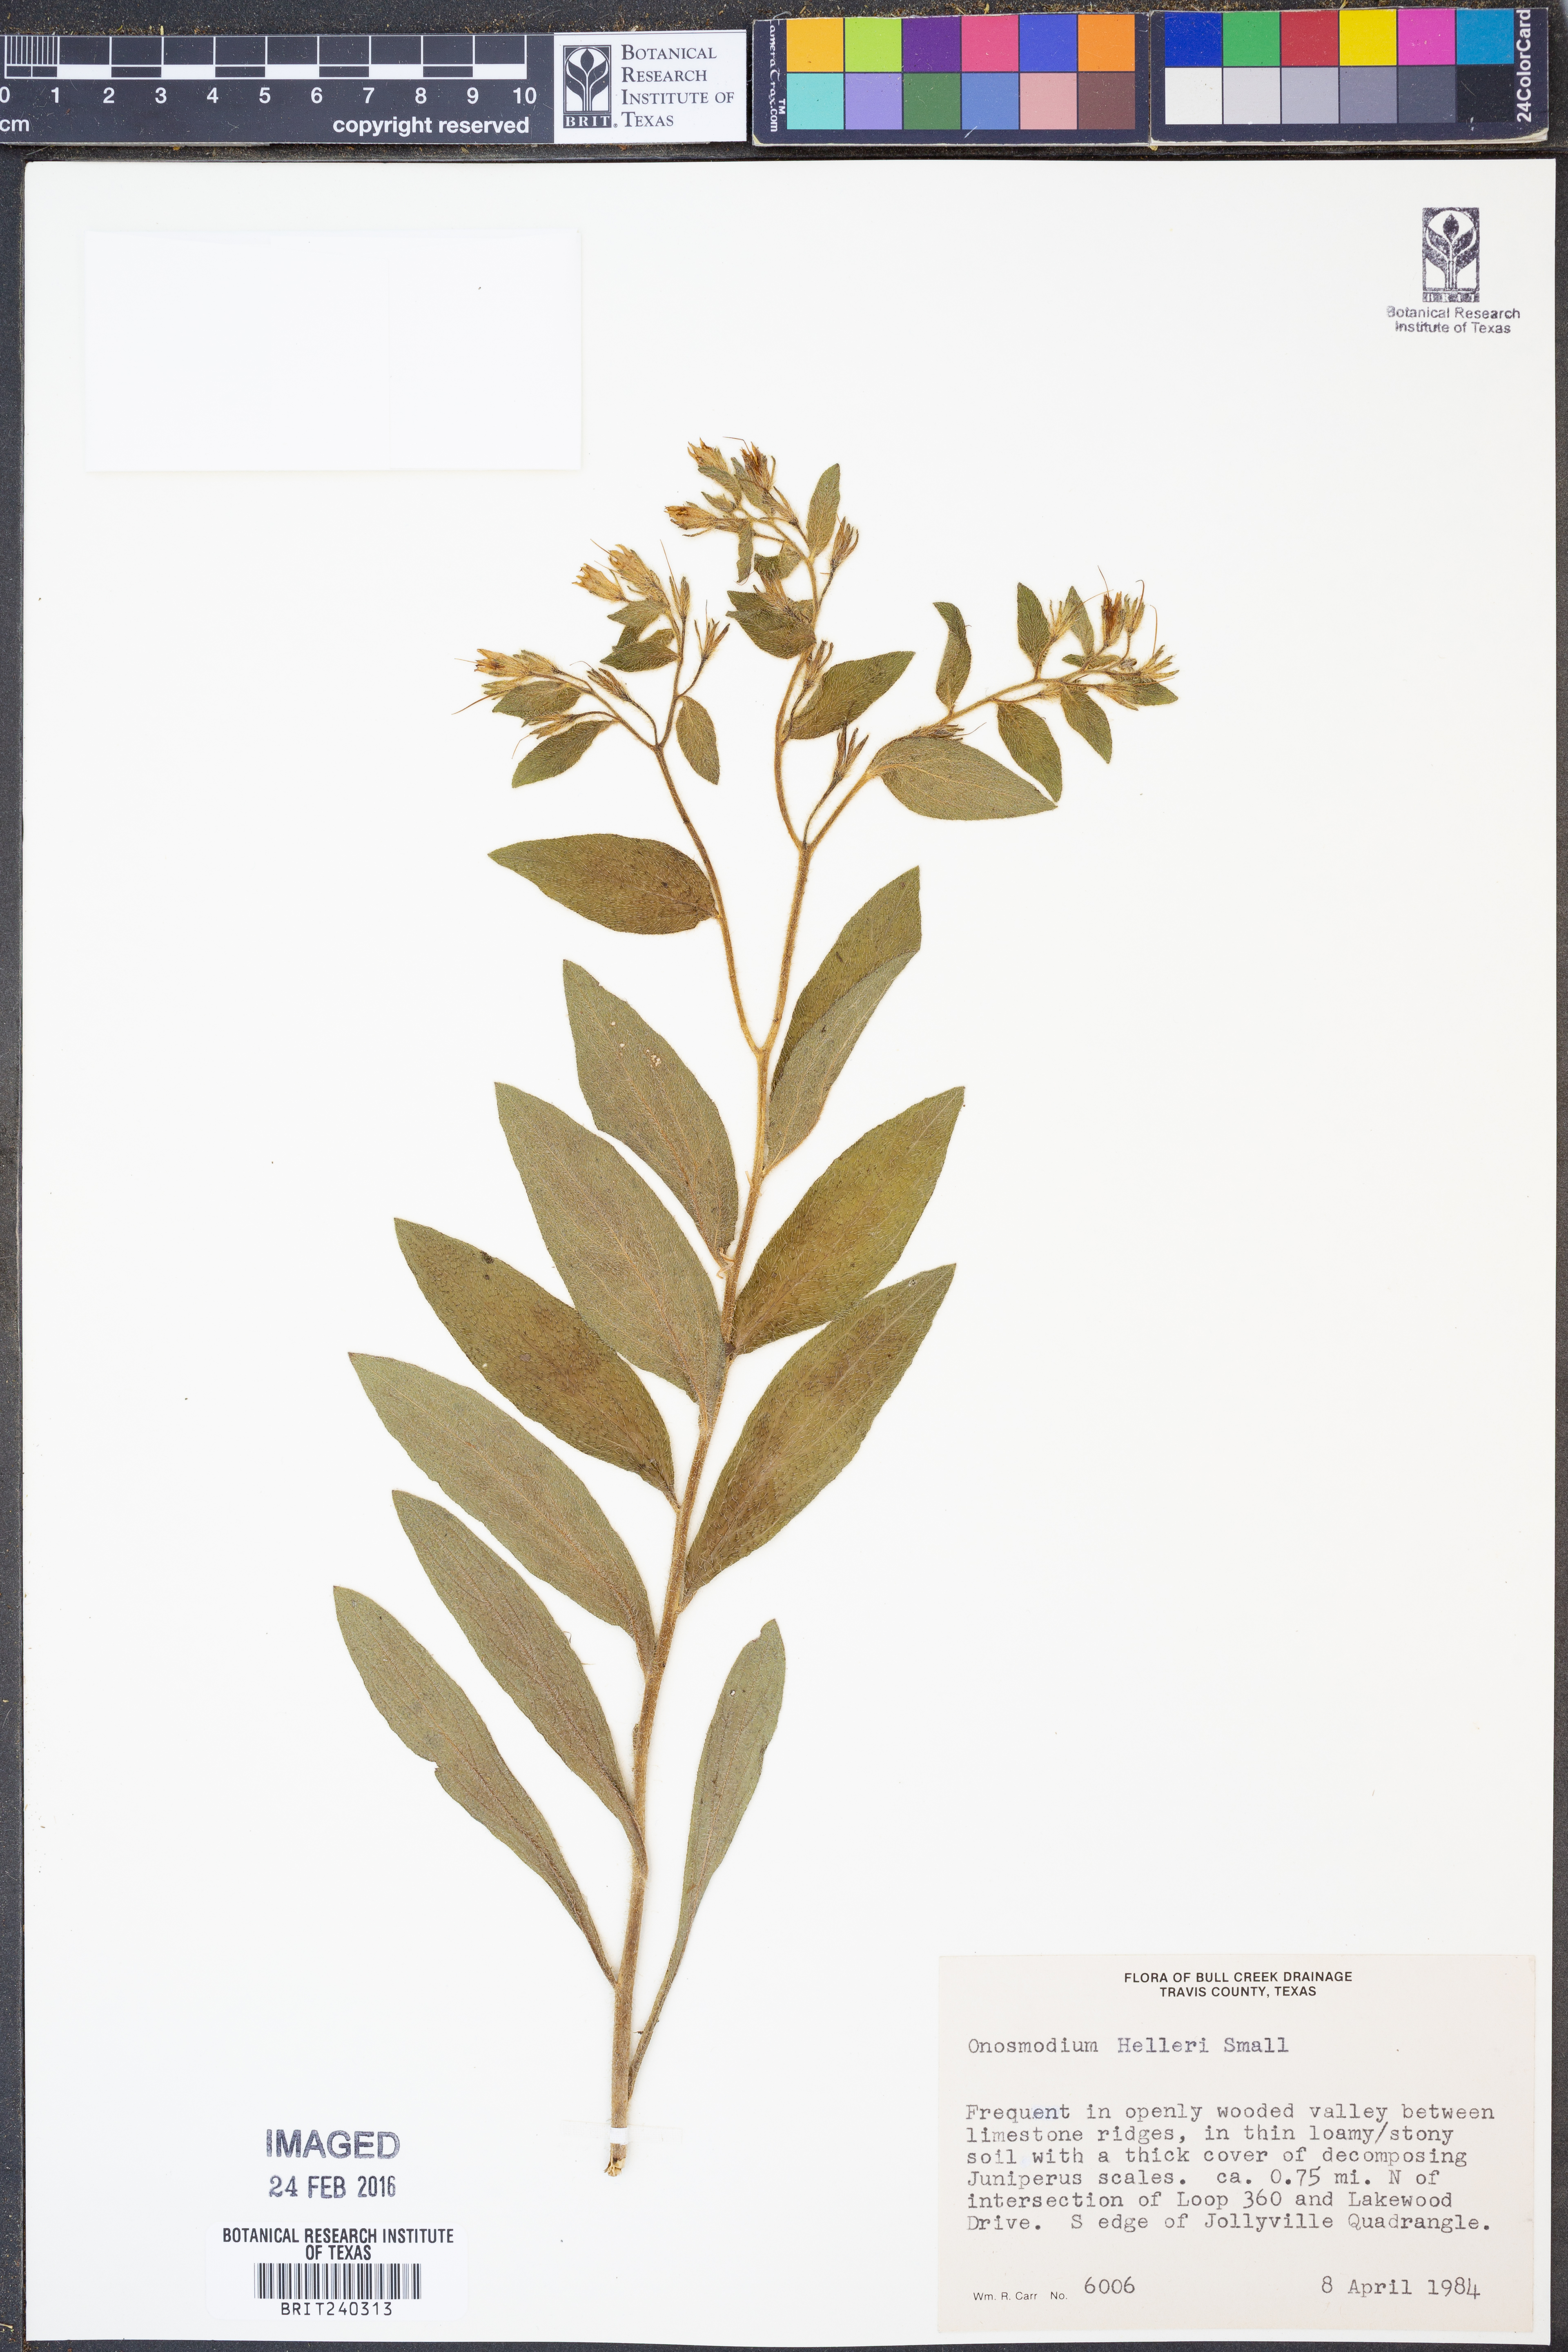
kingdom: Plantae
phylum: Tracheophyta
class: Magnoliopsida
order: Boraginales
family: Boraginaceae
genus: Lithospermum
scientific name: Lithospermum helleri
